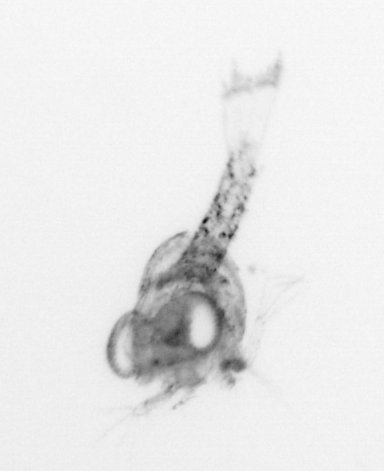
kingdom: Animalia
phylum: Arthropoda
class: Malacostraca
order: Decapoda
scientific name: Decapoda
